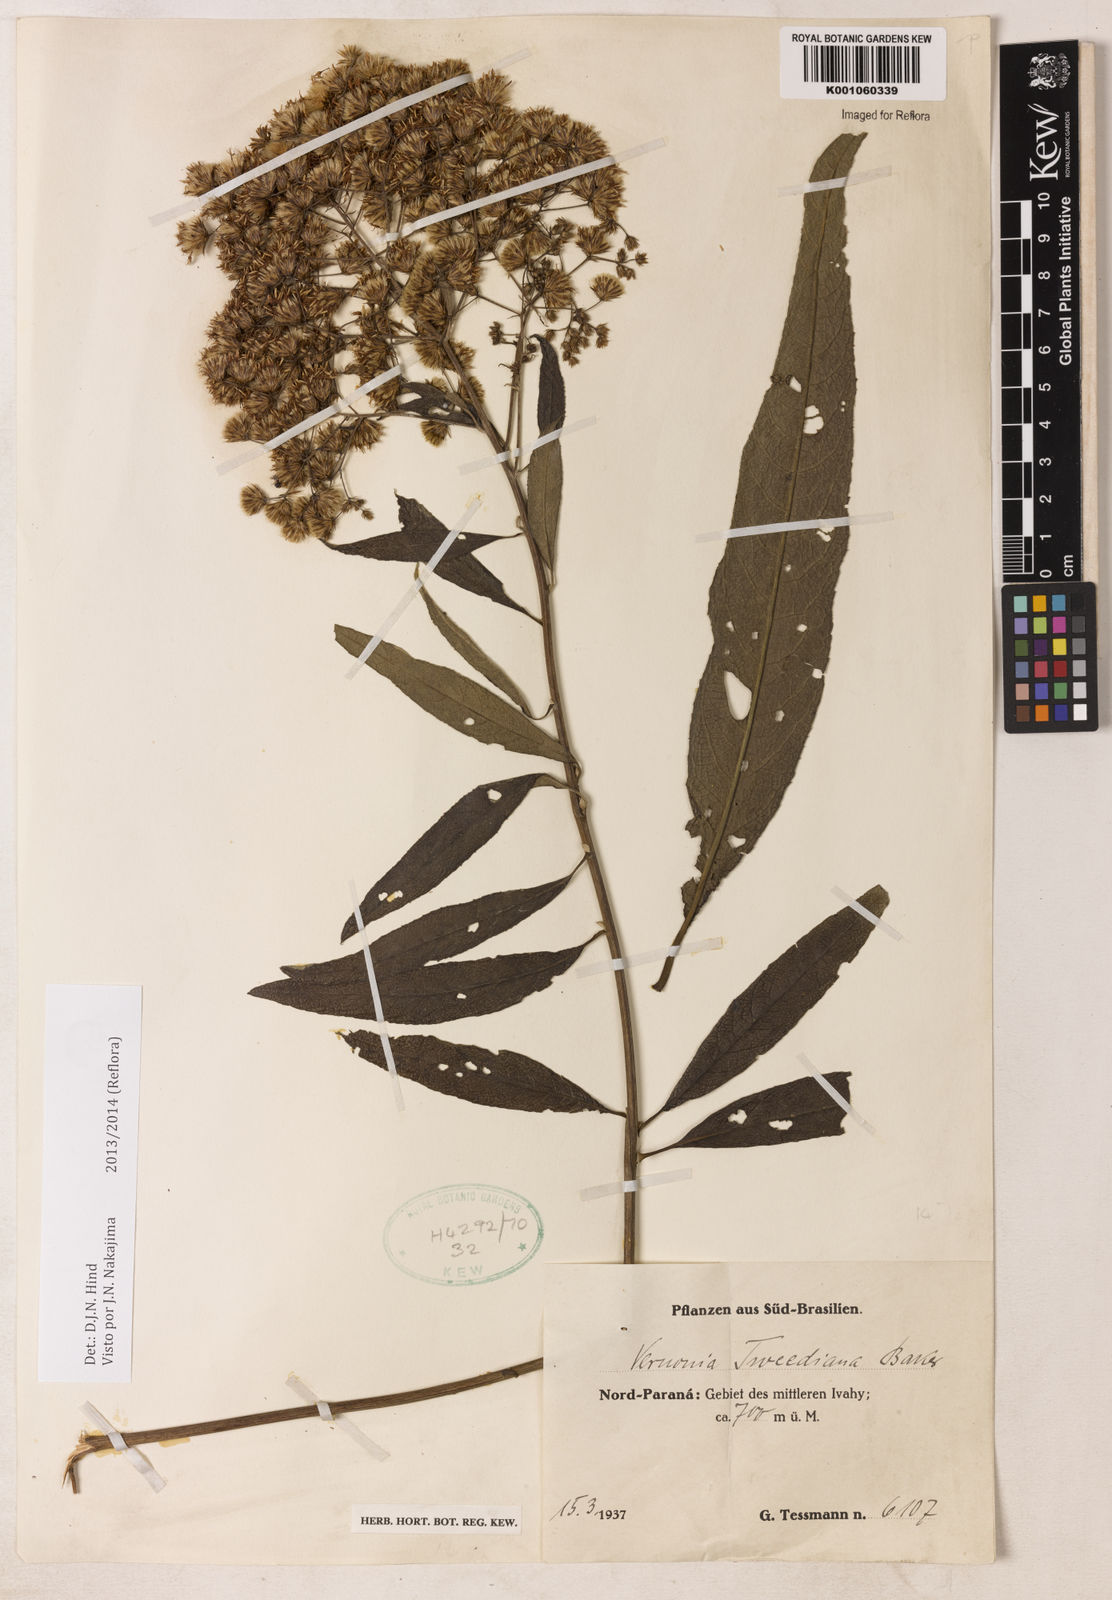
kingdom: Plantae
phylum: Tracheophyta
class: Magnoliopsida
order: Asterales
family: Asteraceae
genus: Vernonia
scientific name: Vernonia
